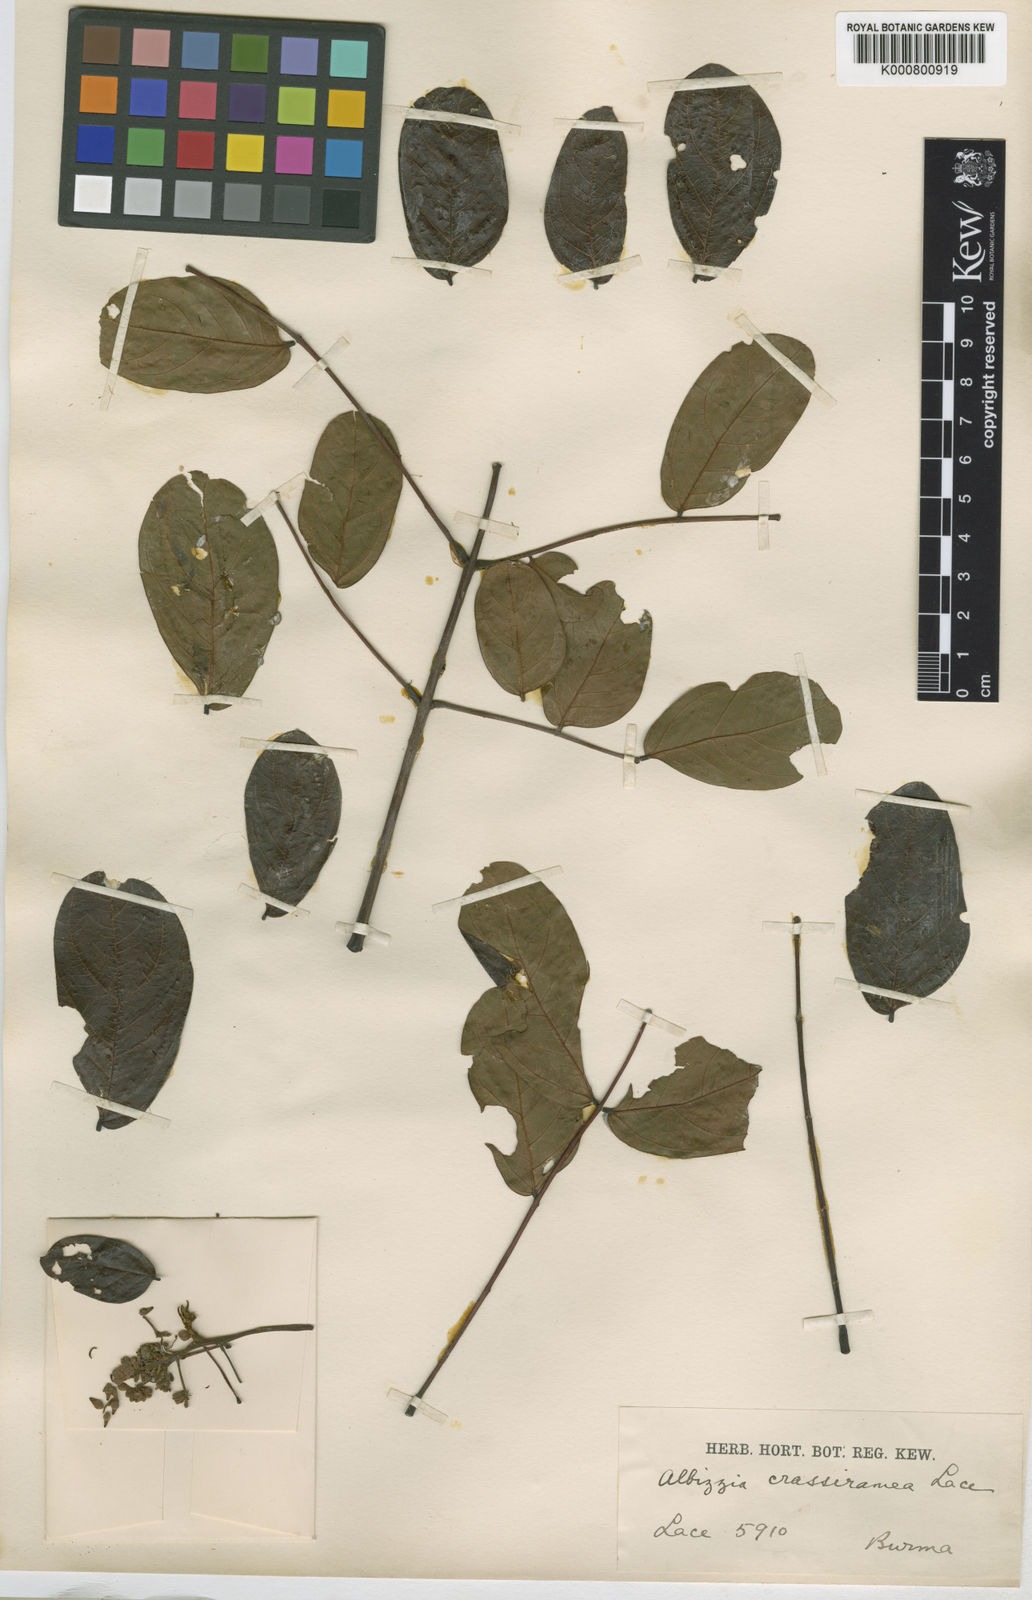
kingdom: Plantae
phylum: Tracheophyta
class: Magnoliopsida
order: Fabales
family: Fabaceae
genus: Albizia
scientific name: Albizia crassiramea
